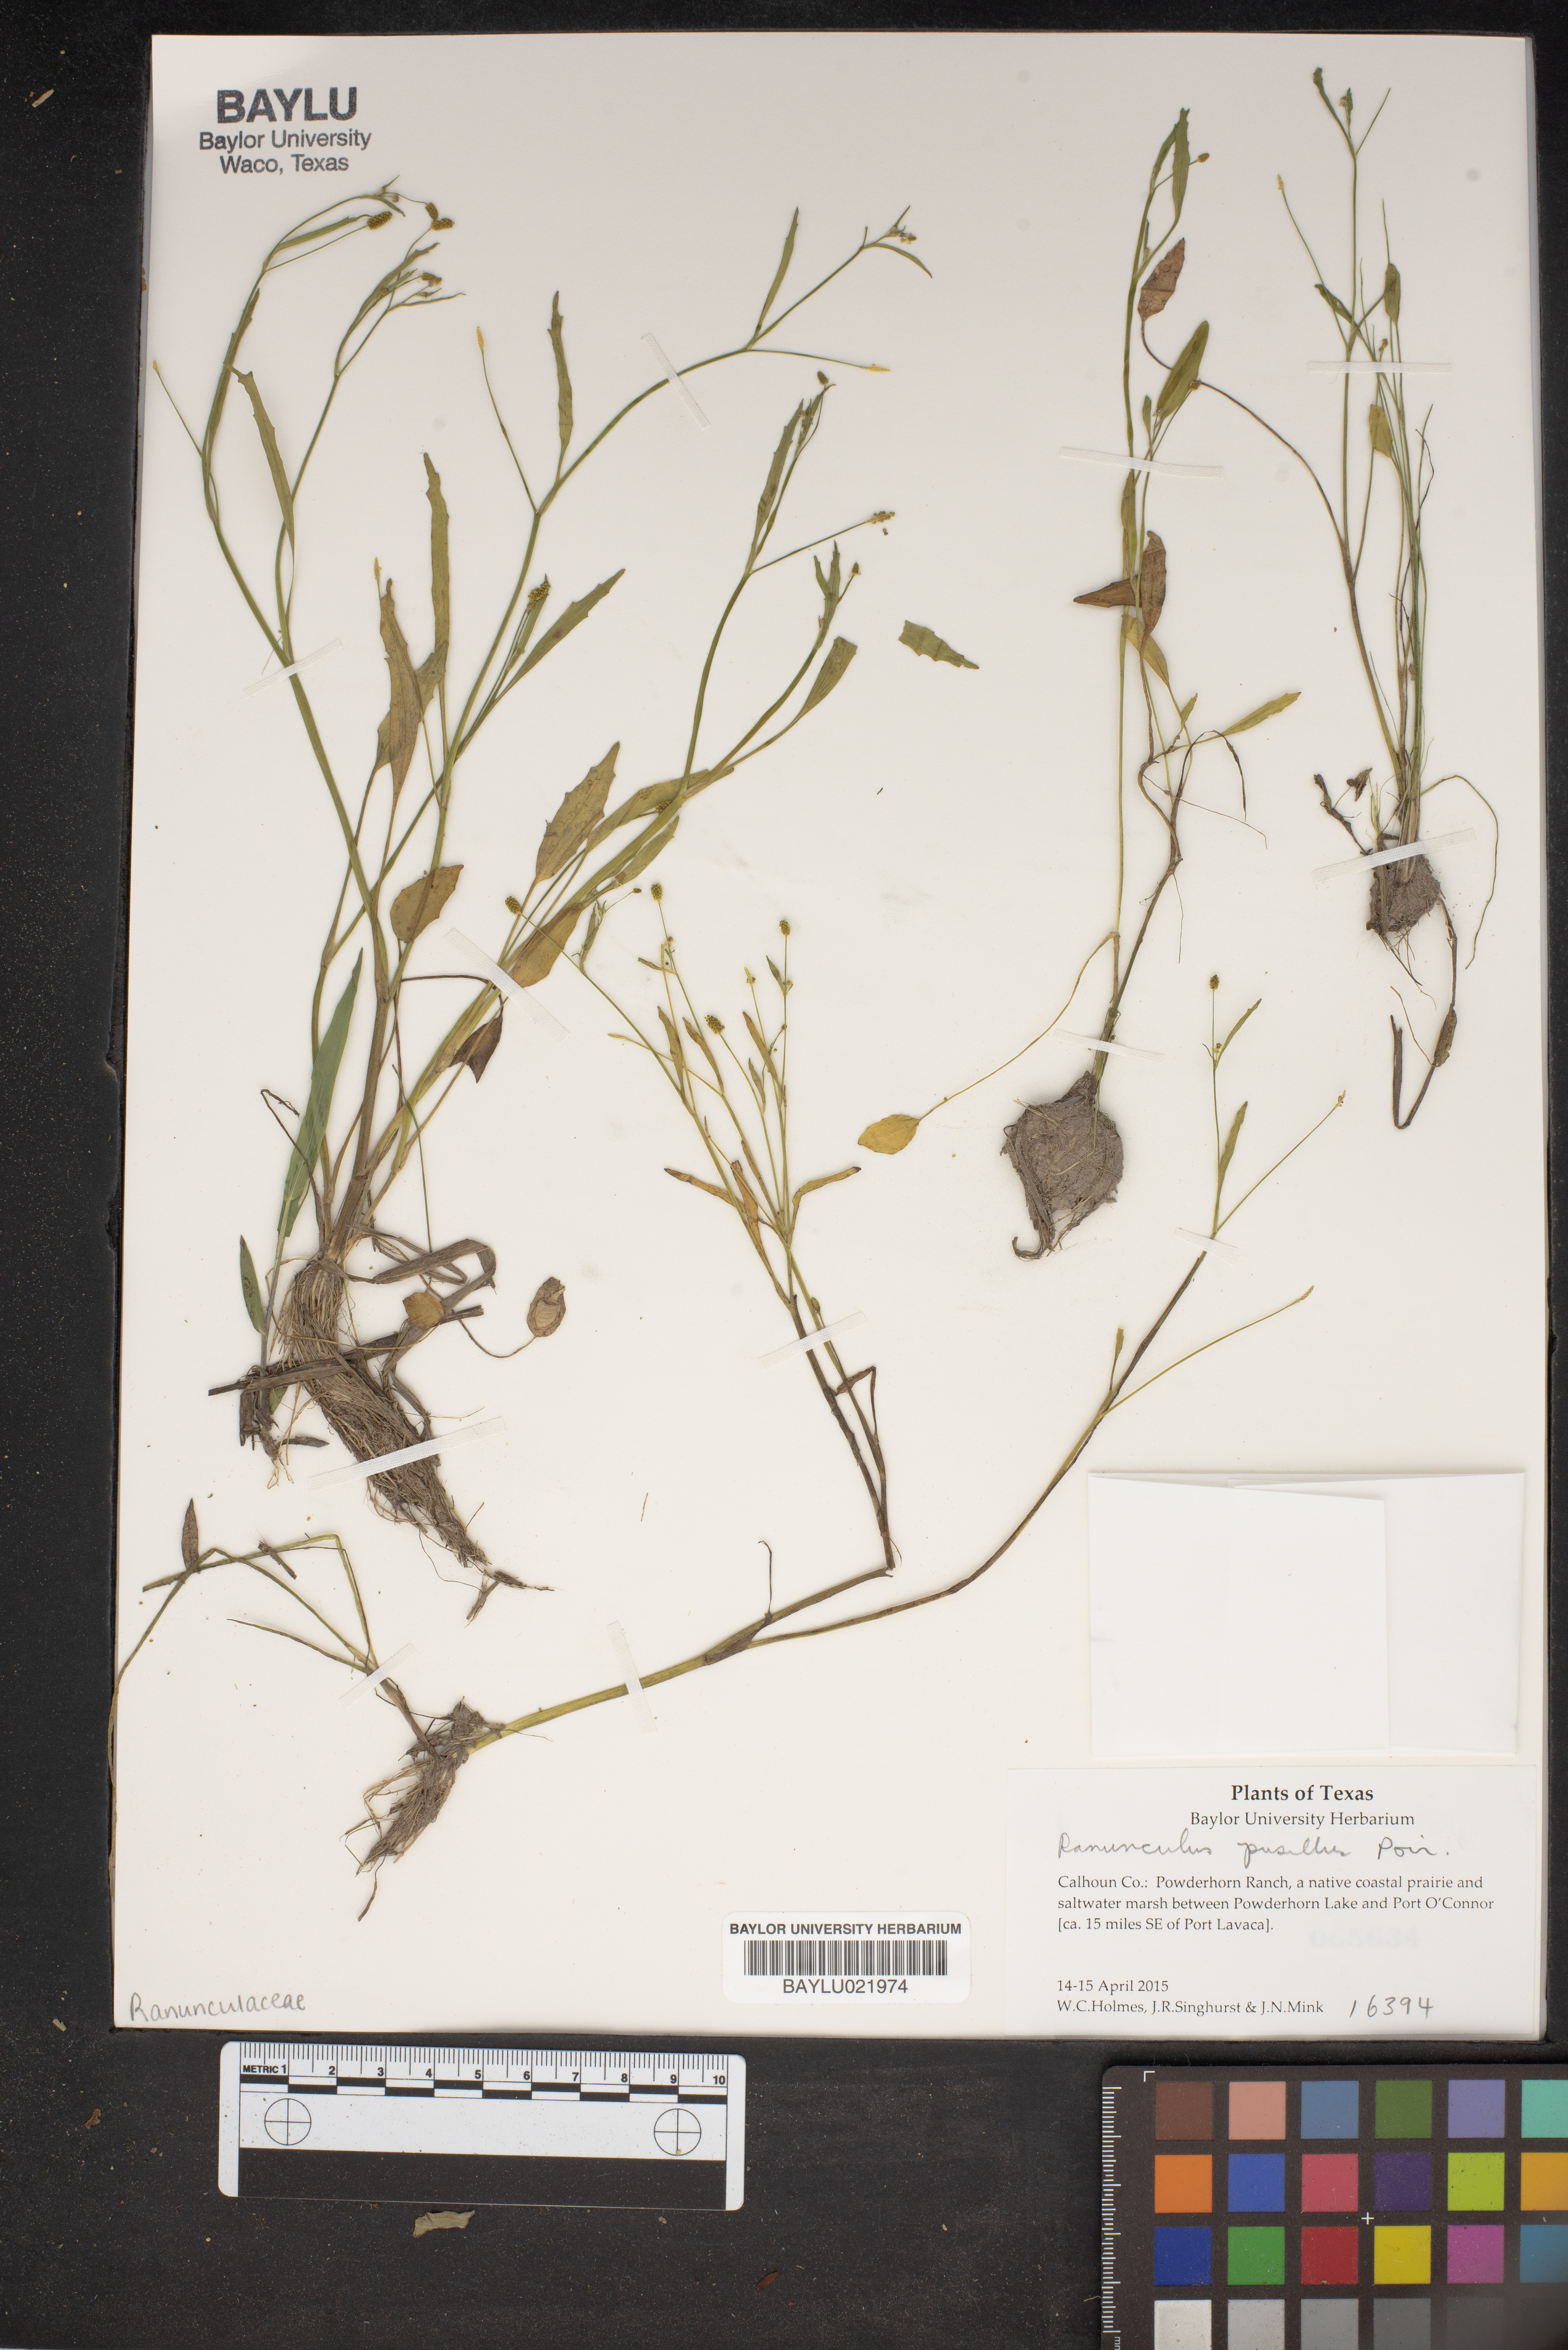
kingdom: Plantae
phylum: Tracheophyta
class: Magnoliopsida
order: Ranunculales
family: Ranunculaceae
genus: Ranunculus
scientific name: Ranunculus pusillus
